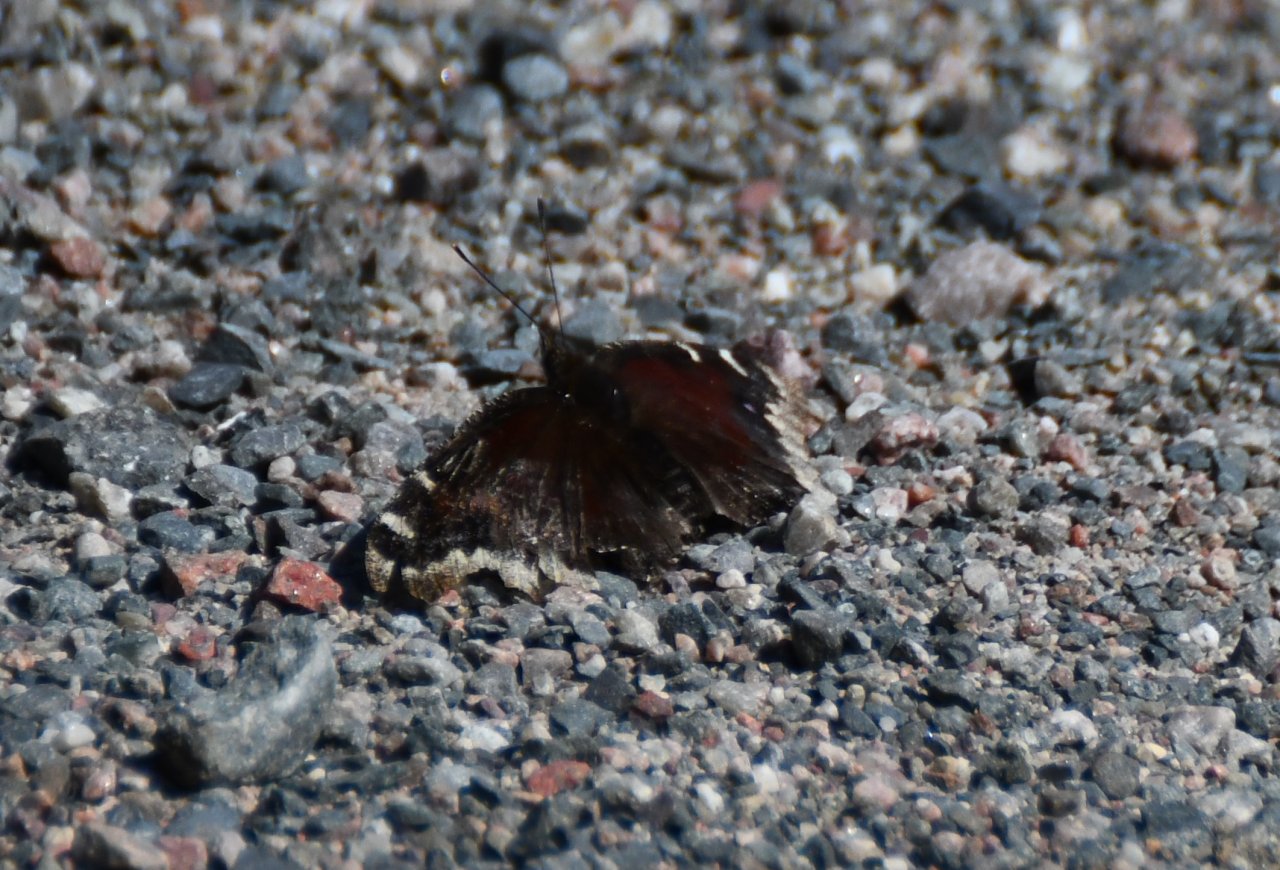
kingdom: Animalia
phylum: Arthropoda
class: Insecta
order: Lepidoptera
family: Nymphalidae
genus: Nymphalis
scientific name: Nymphalis antiopa
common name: Mourning Cloak
